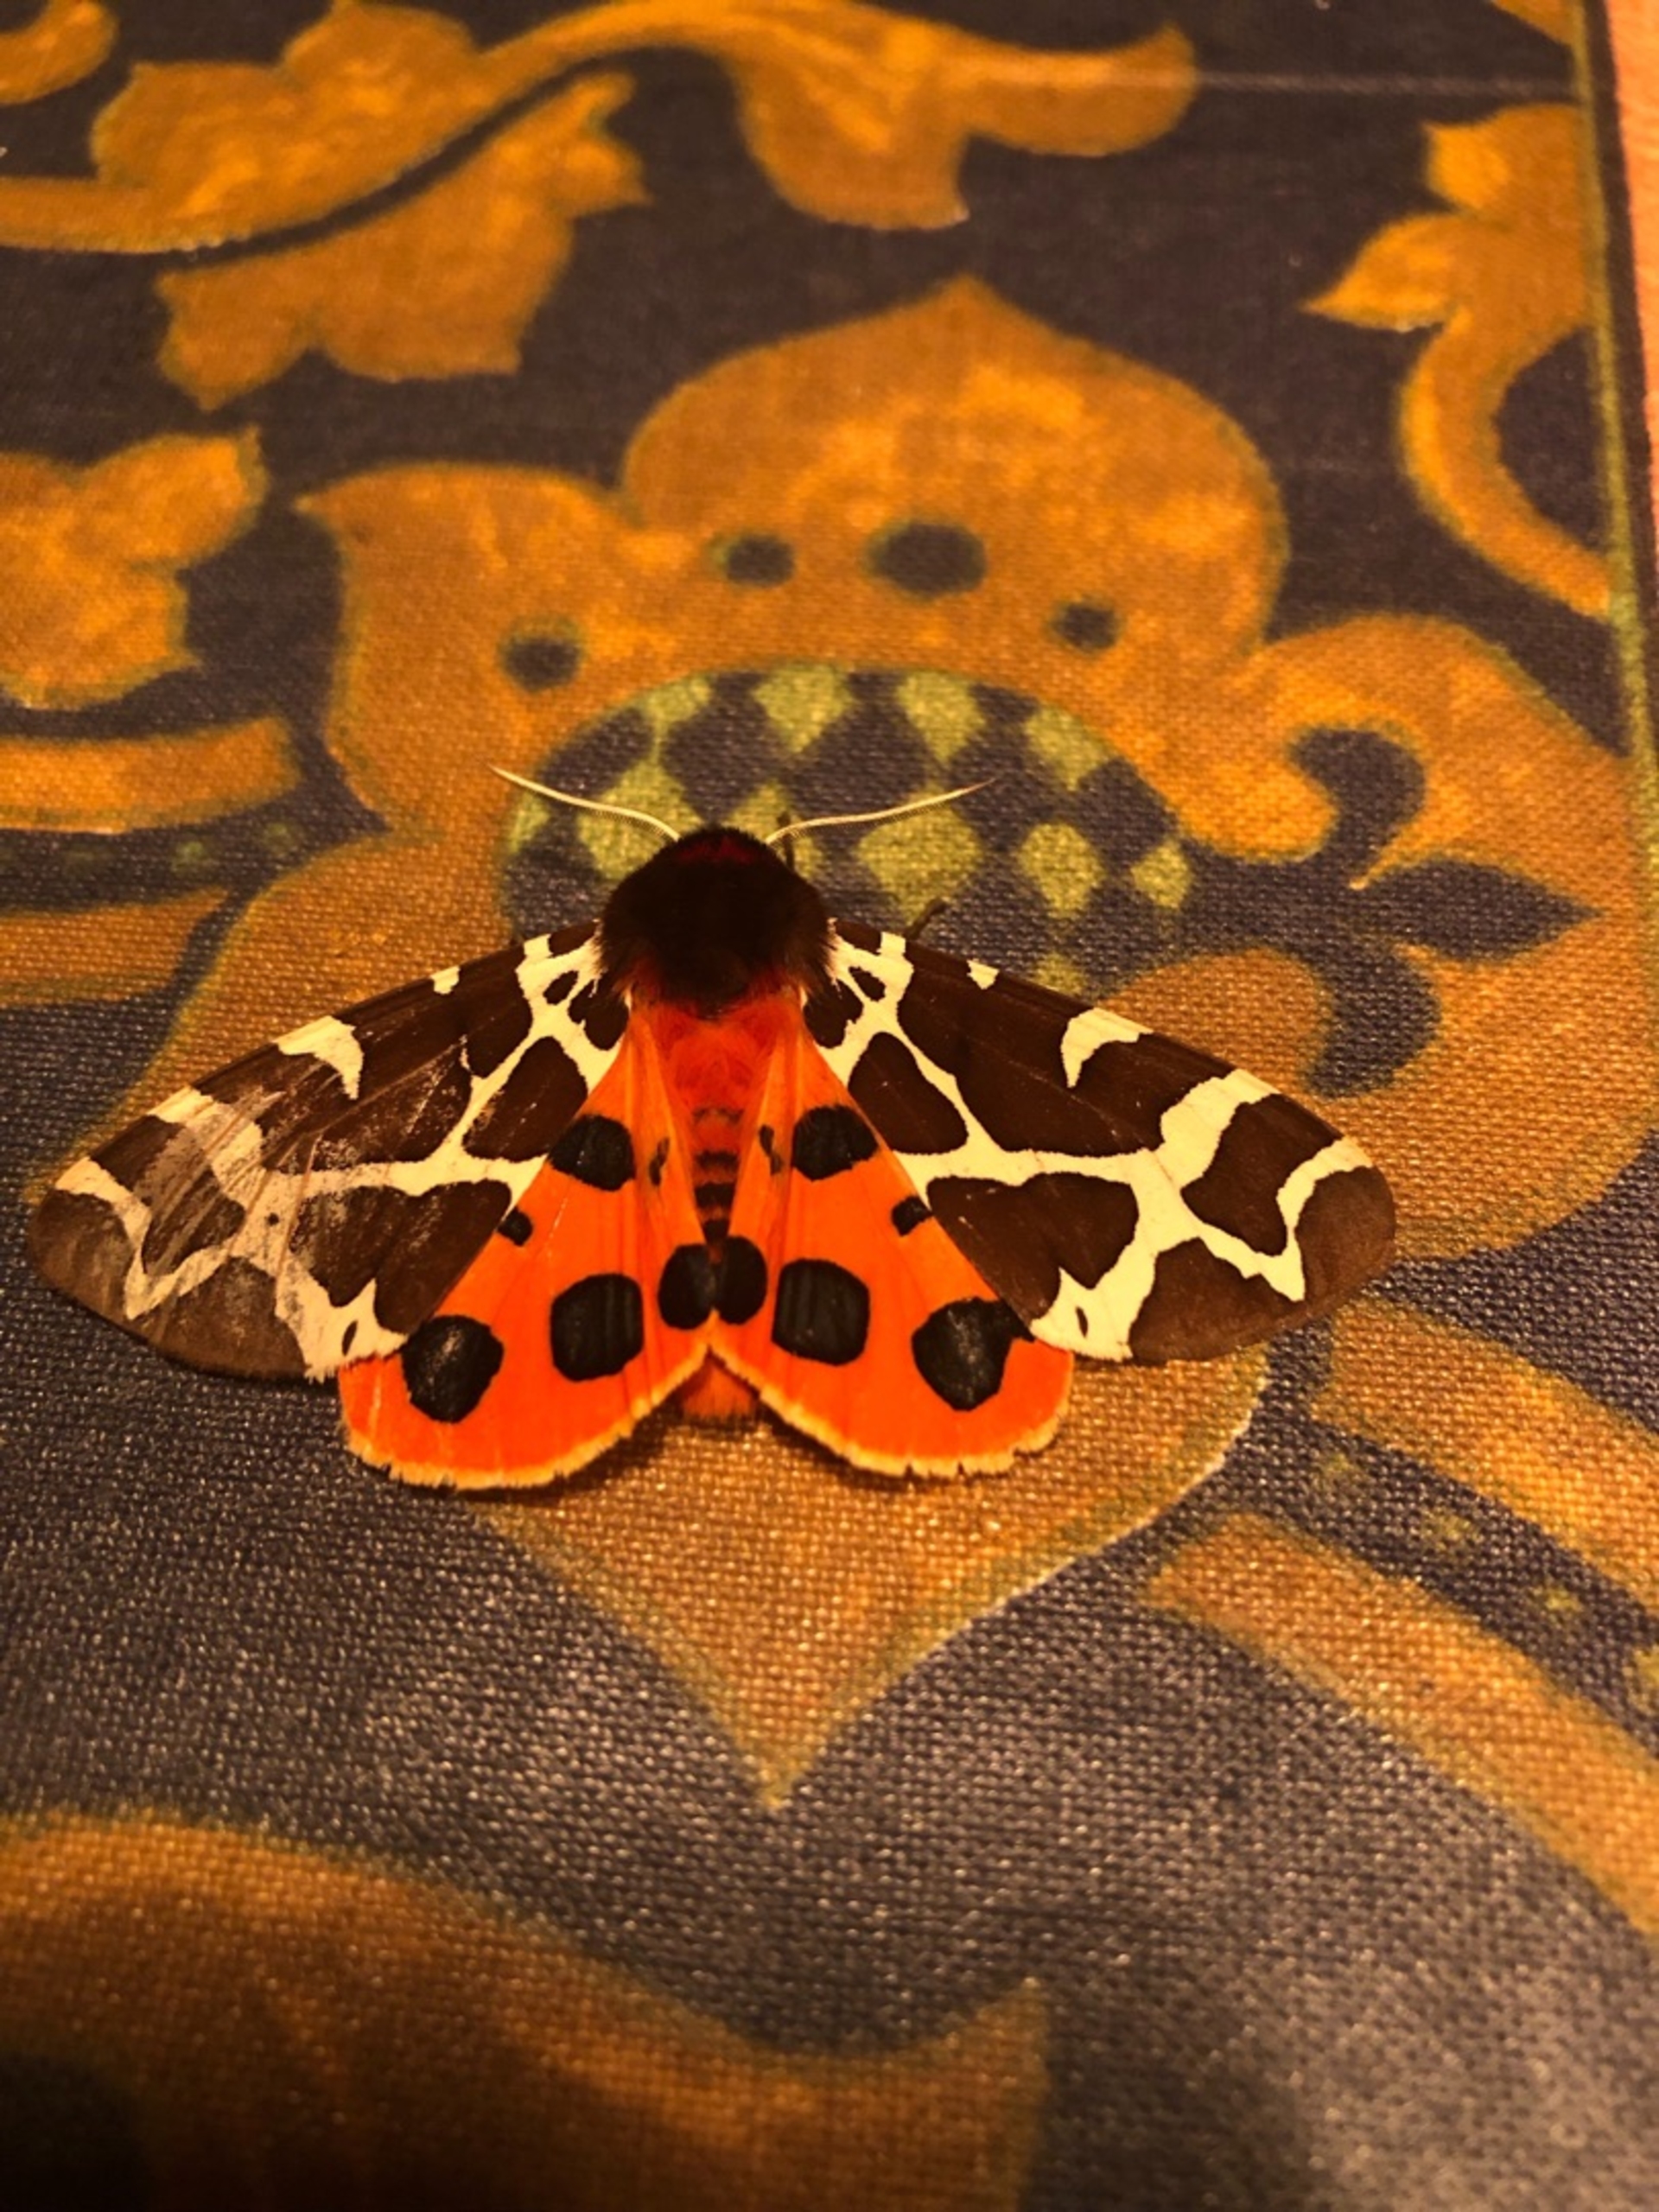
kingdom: Animalia
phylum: Arthropoda
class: Insecta
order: Lepidoptera
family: Erebidae
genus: Arctia
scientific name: Arctia caja
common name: Brun bjørn
